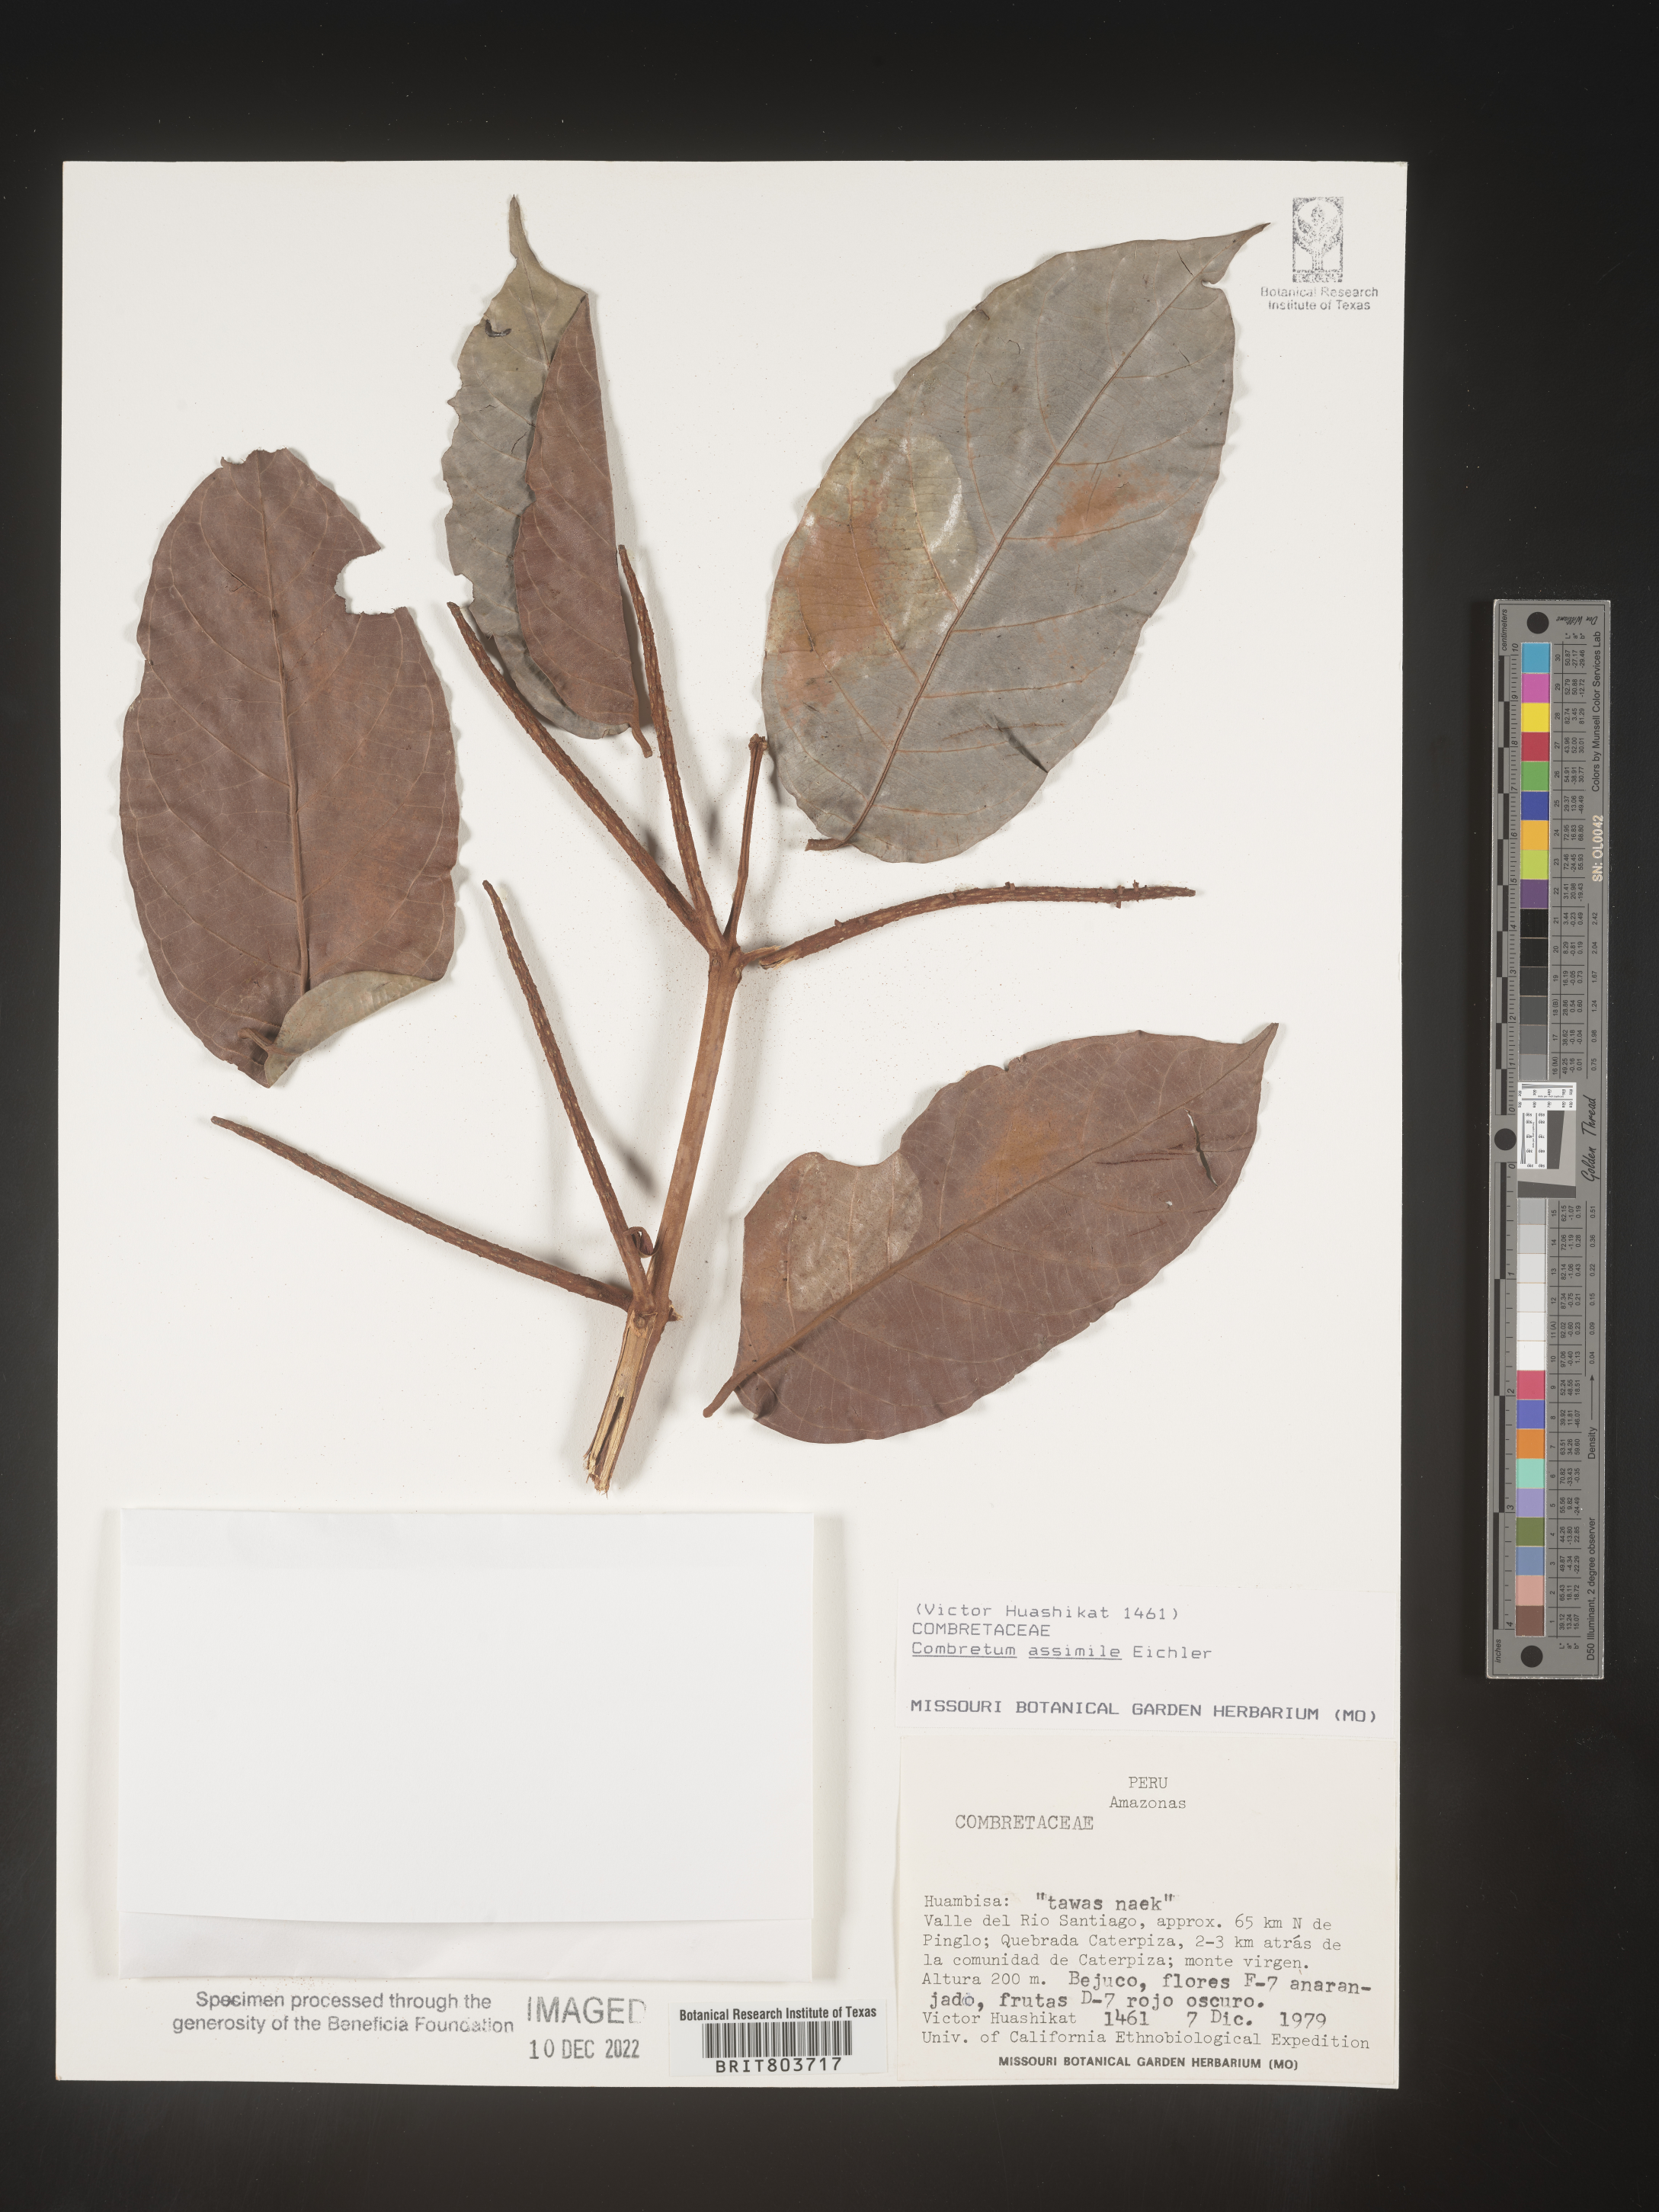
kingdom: Plantae
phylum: Tracheophyta
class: Magnoliopsida
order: Myrtales
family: Combretaceae
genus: Combretum
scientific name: Combretum
